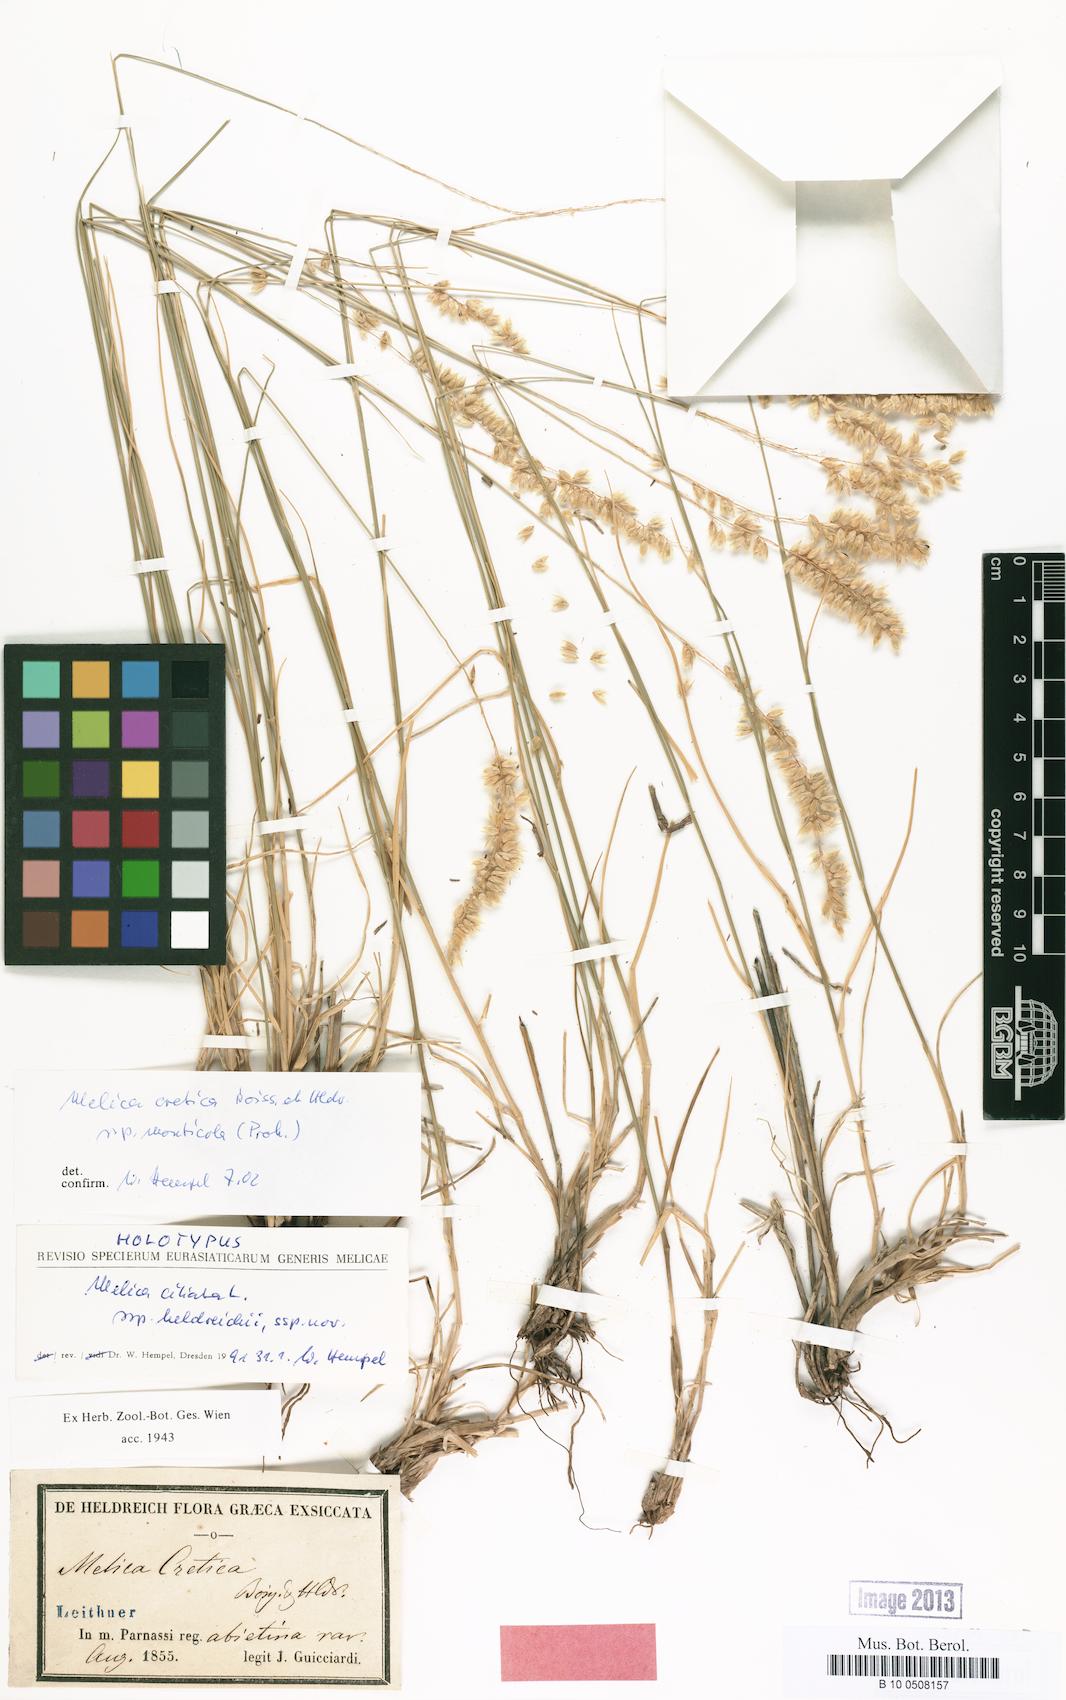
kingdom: Plantae
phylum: Tracheophyta
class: Liliopsida
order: Poales
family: Poaceae
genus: Melica
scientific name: Melica ciliata
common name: Hairy melicgrass
